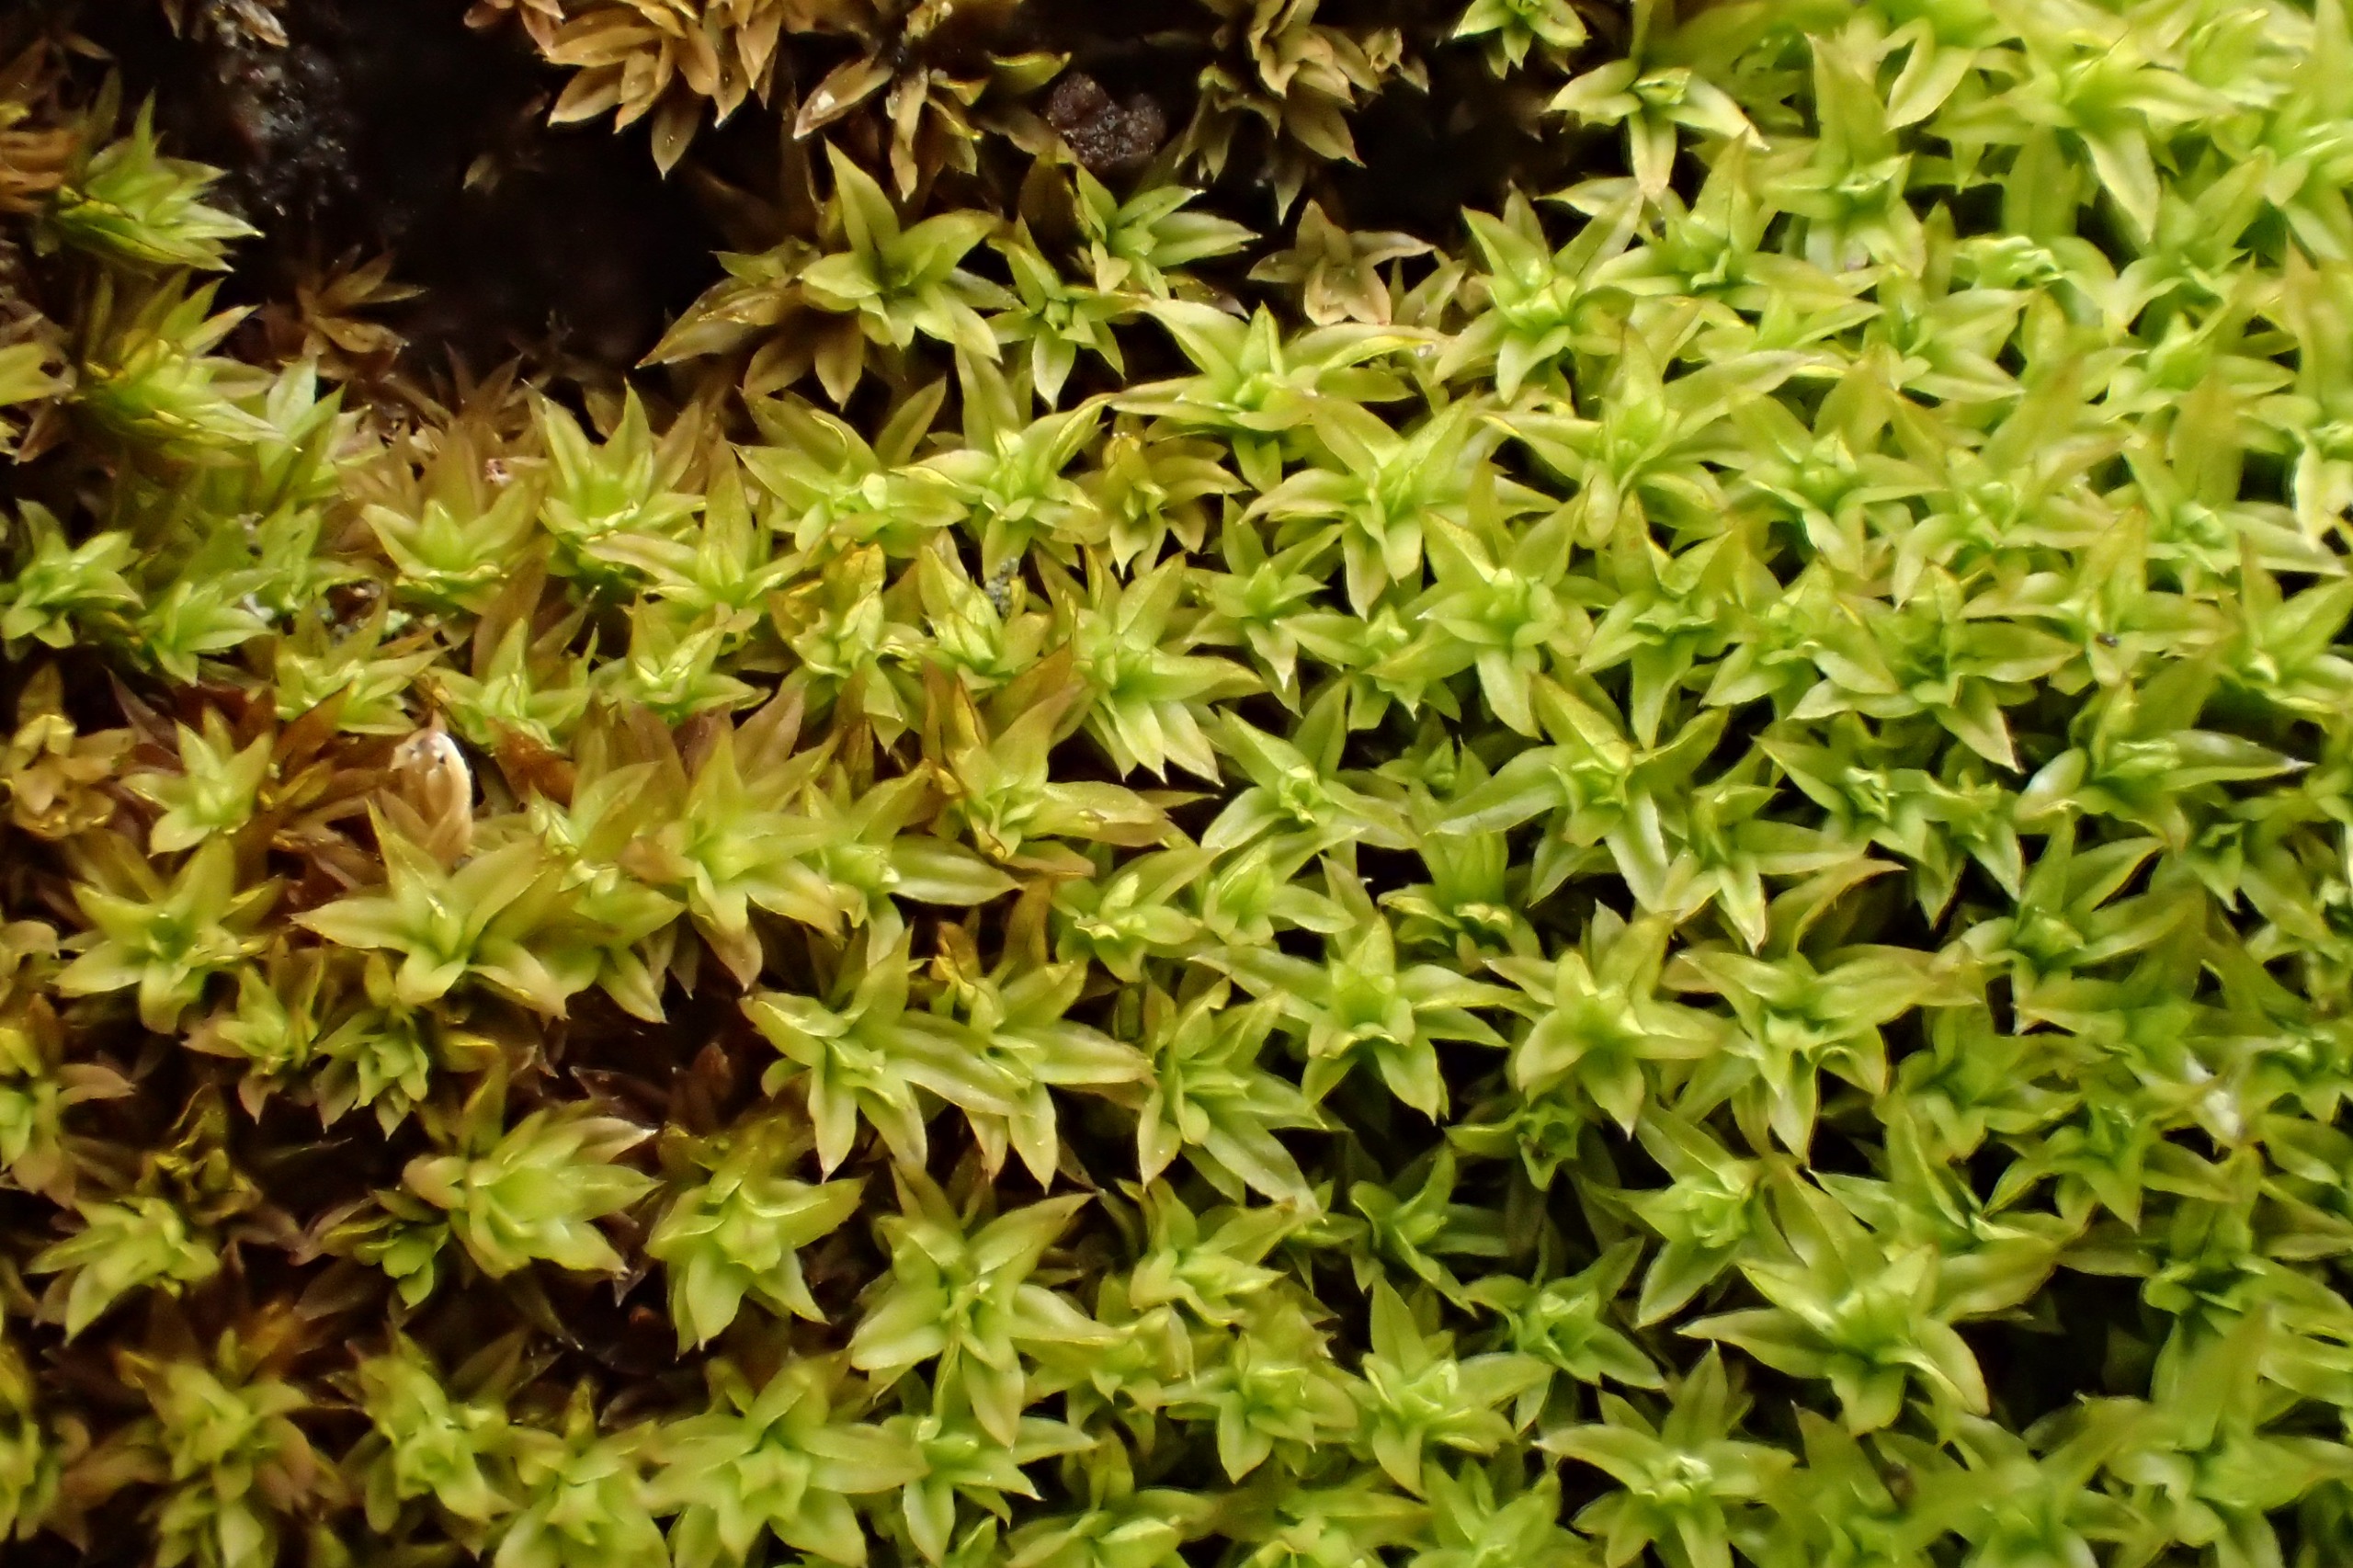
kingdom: Plantae
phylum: Bryophyta
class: Bryopsida
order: Orthotrichales
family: Orthotrichaceae
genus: Zygodon
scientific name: Zygodon conoideus
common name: Tand-køllemos
